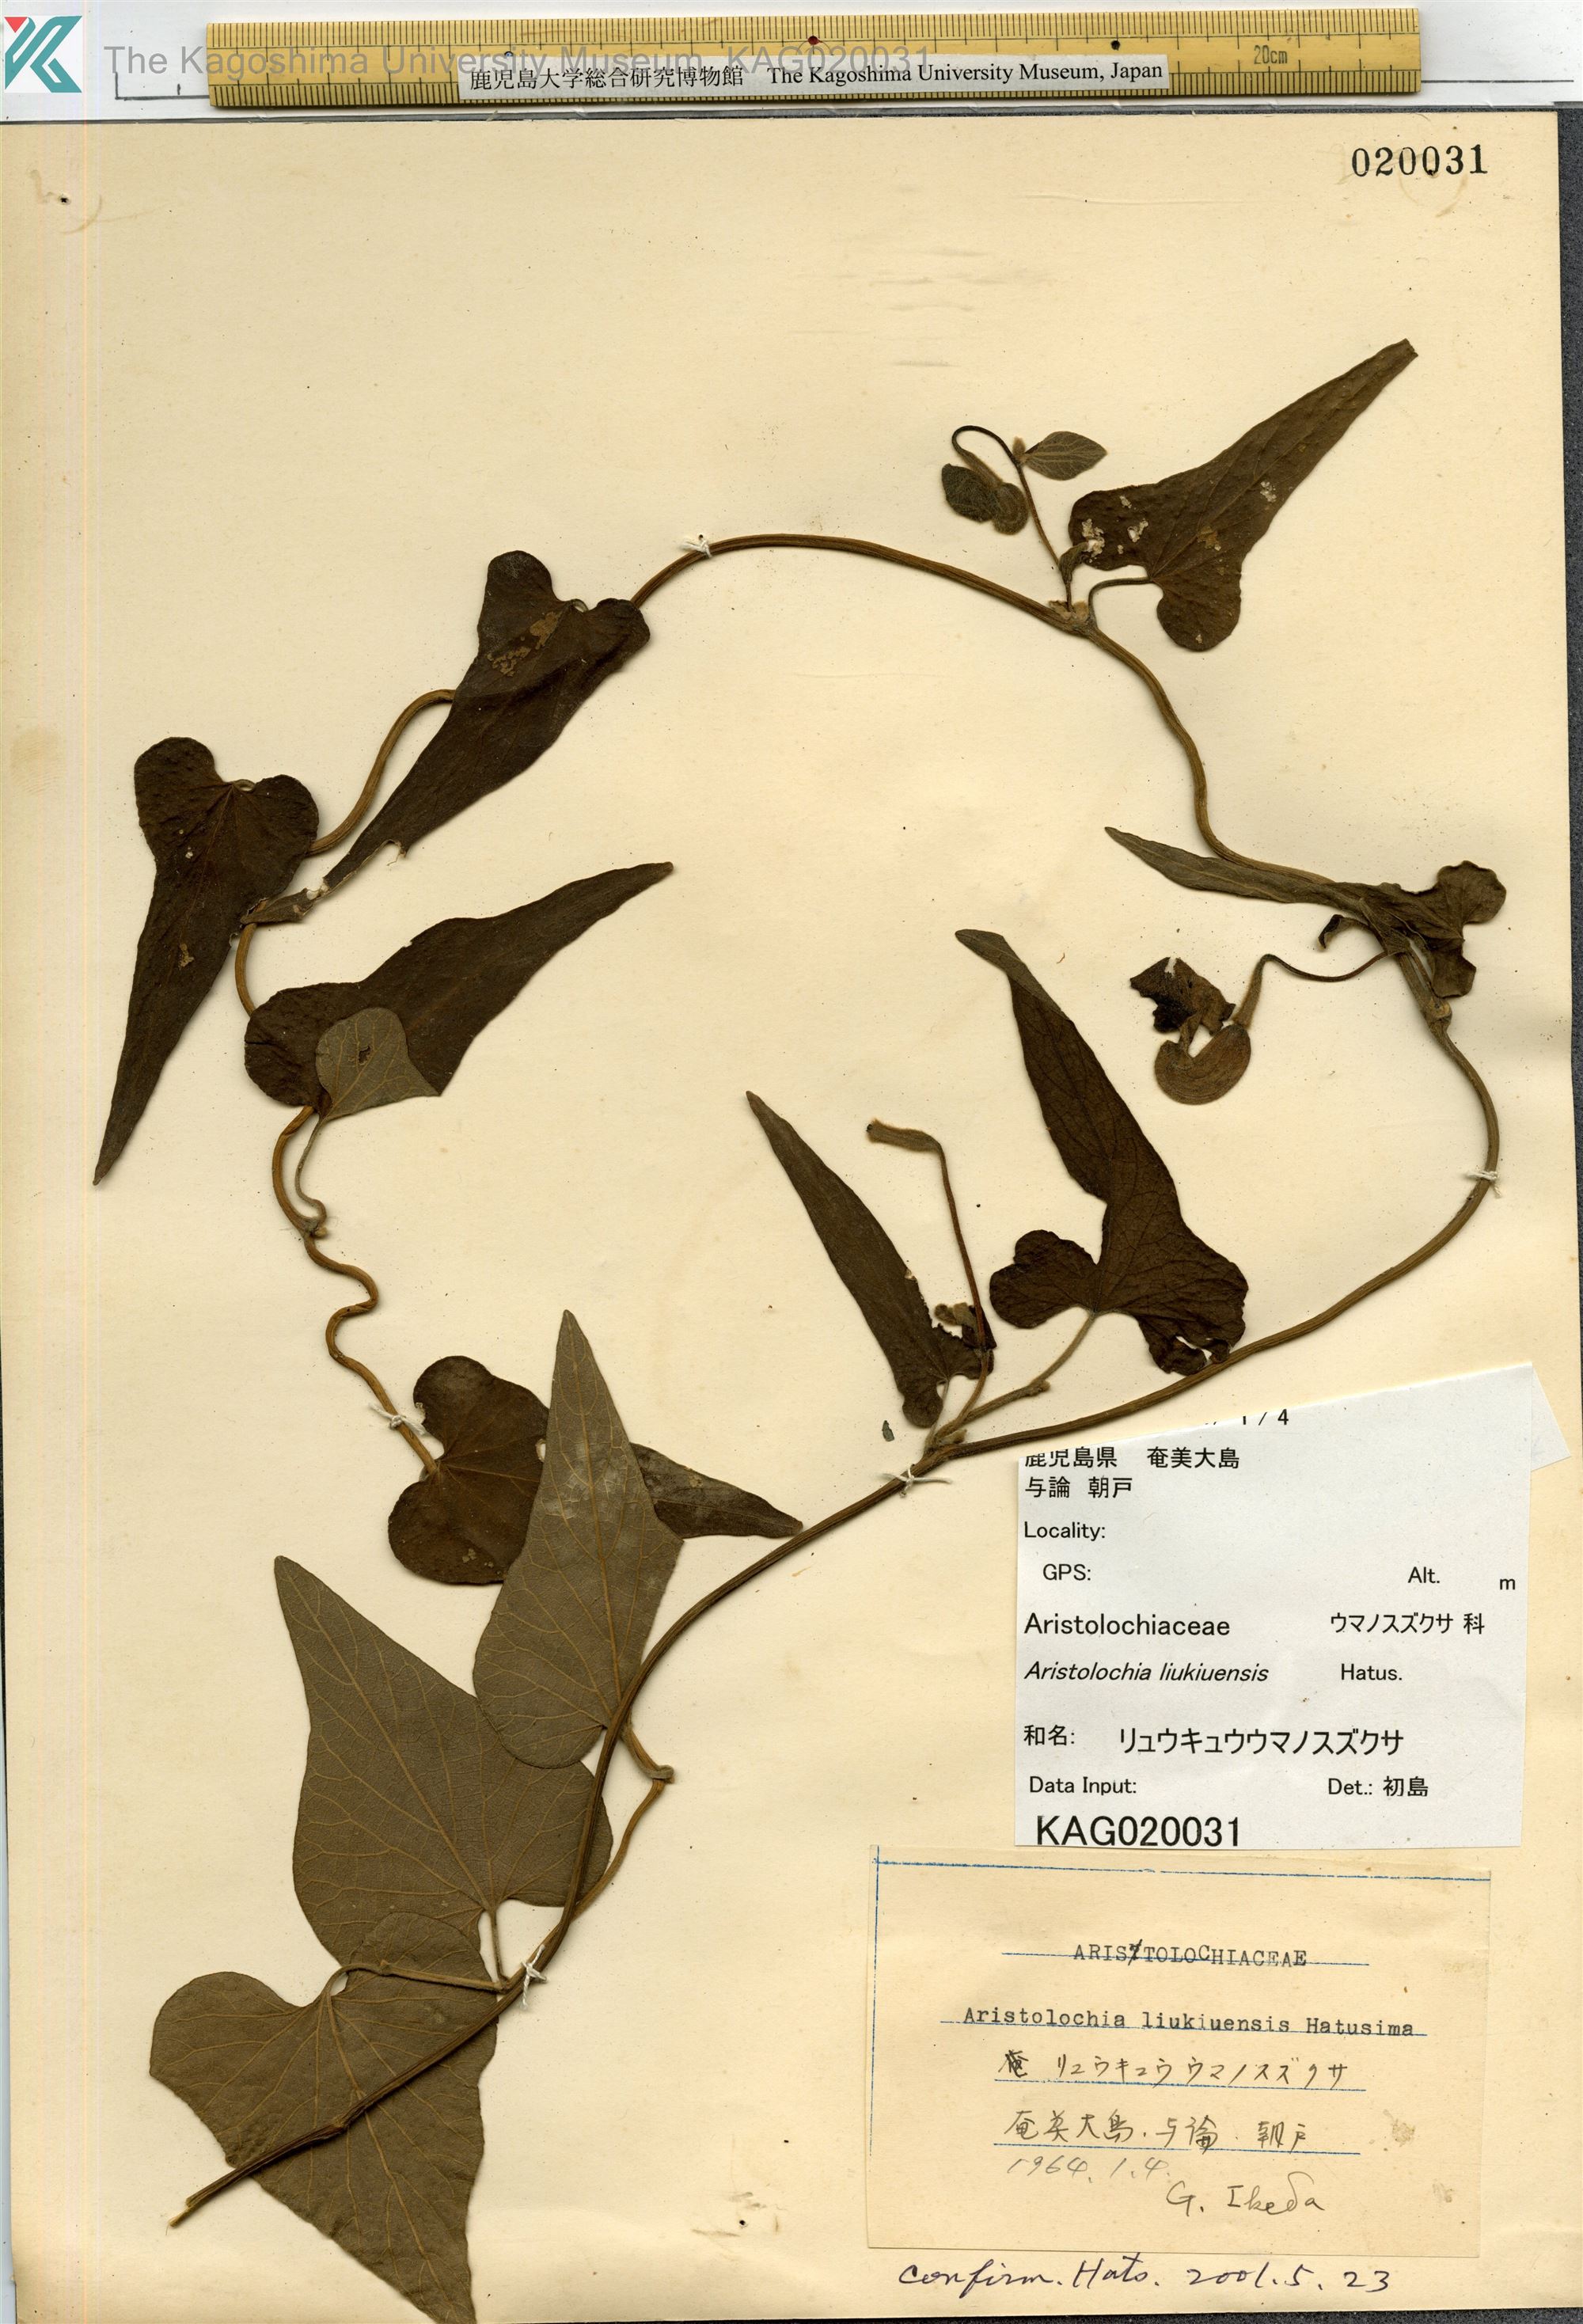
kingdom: Plantae
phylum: Tracheophyta
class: Magnoliopsida
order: Piperales
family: Aristolochiaceae
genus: Isotrema
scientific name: Isotrema liukiuense
